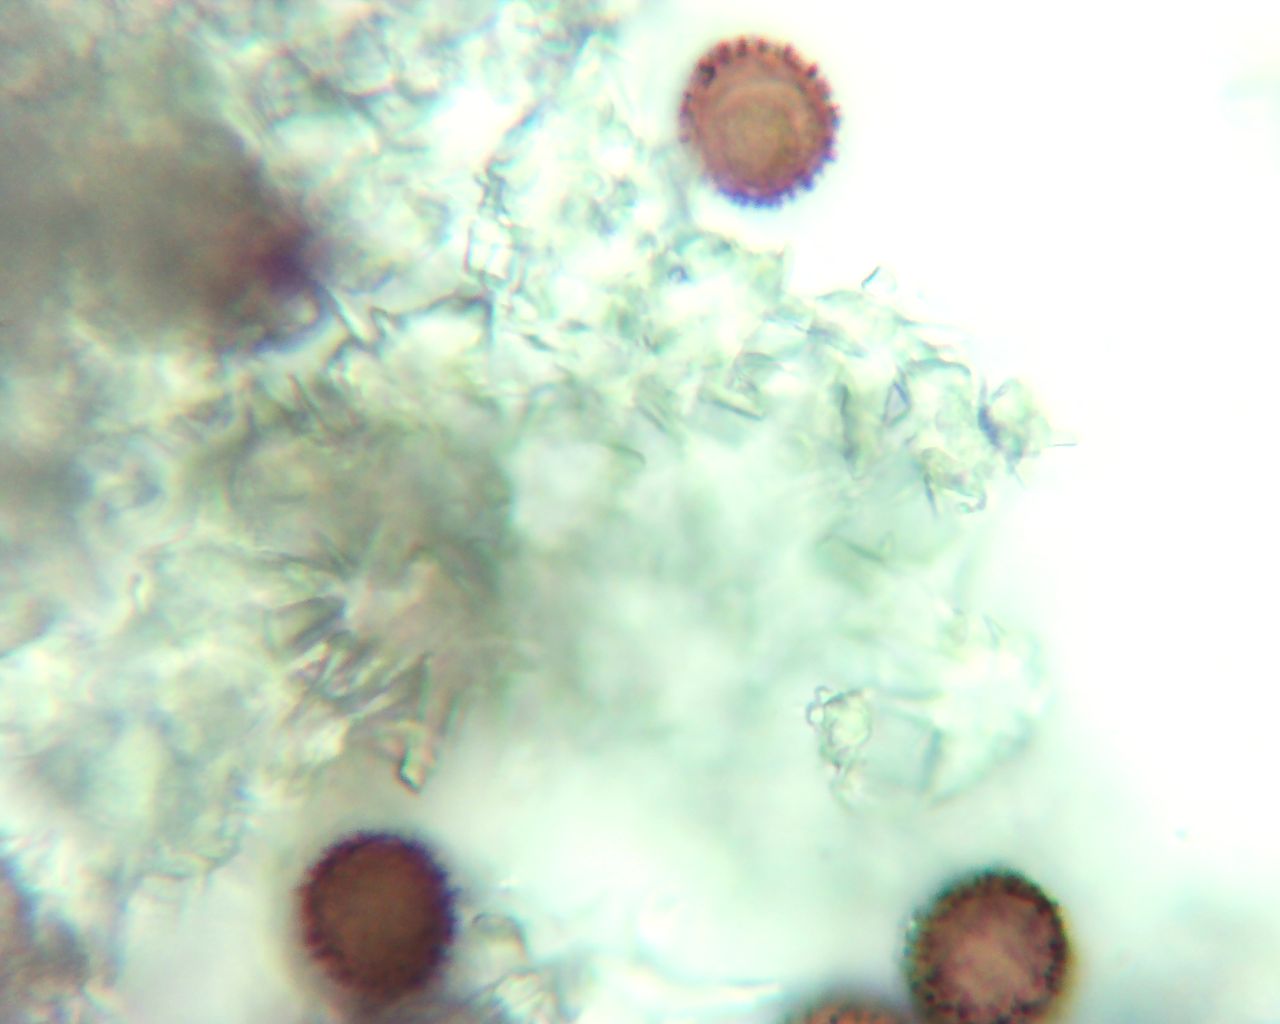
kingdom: Protozoa
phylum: Mycetozoa
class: Myxomycetes
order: Physarales
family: Physaraceae
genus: Didymium
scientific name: Didymium
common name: urteskum
